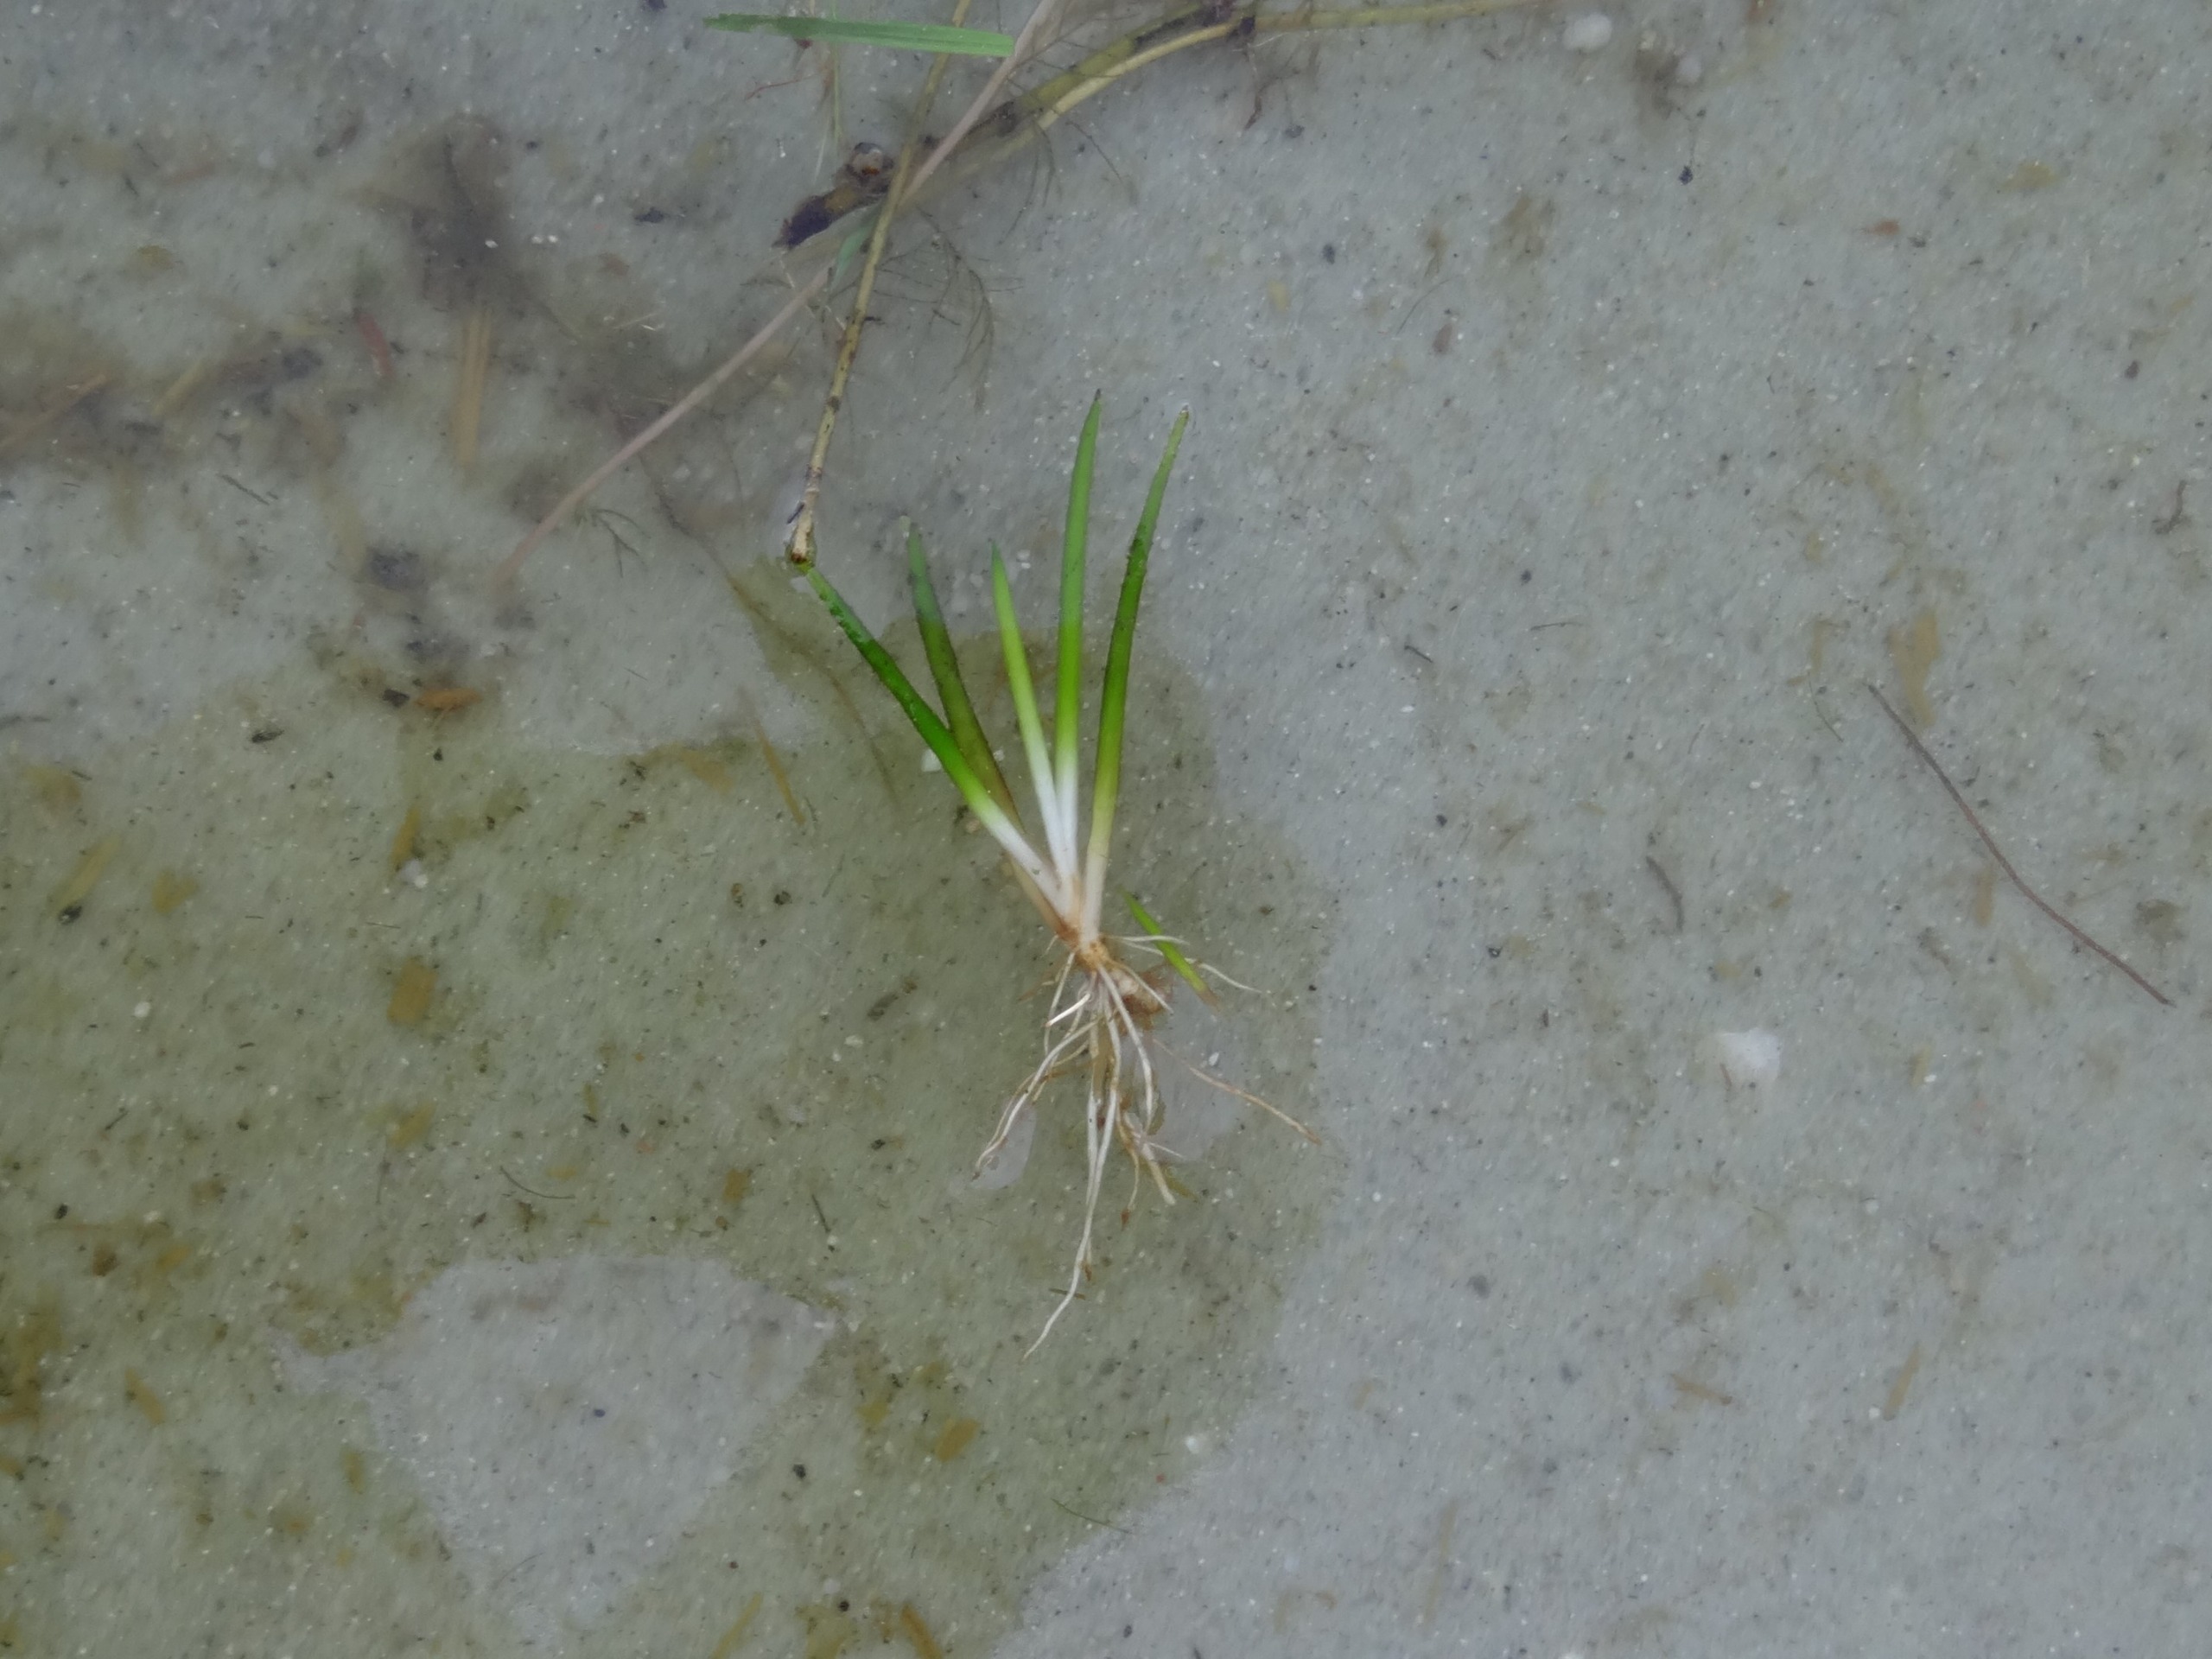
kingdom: Plantae
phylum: Tracheophyta
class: Magnoliopsida
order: Lamiales
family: Plantaginaceae
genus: Littorella
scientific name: Littorella uniflora
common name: Strandbo
